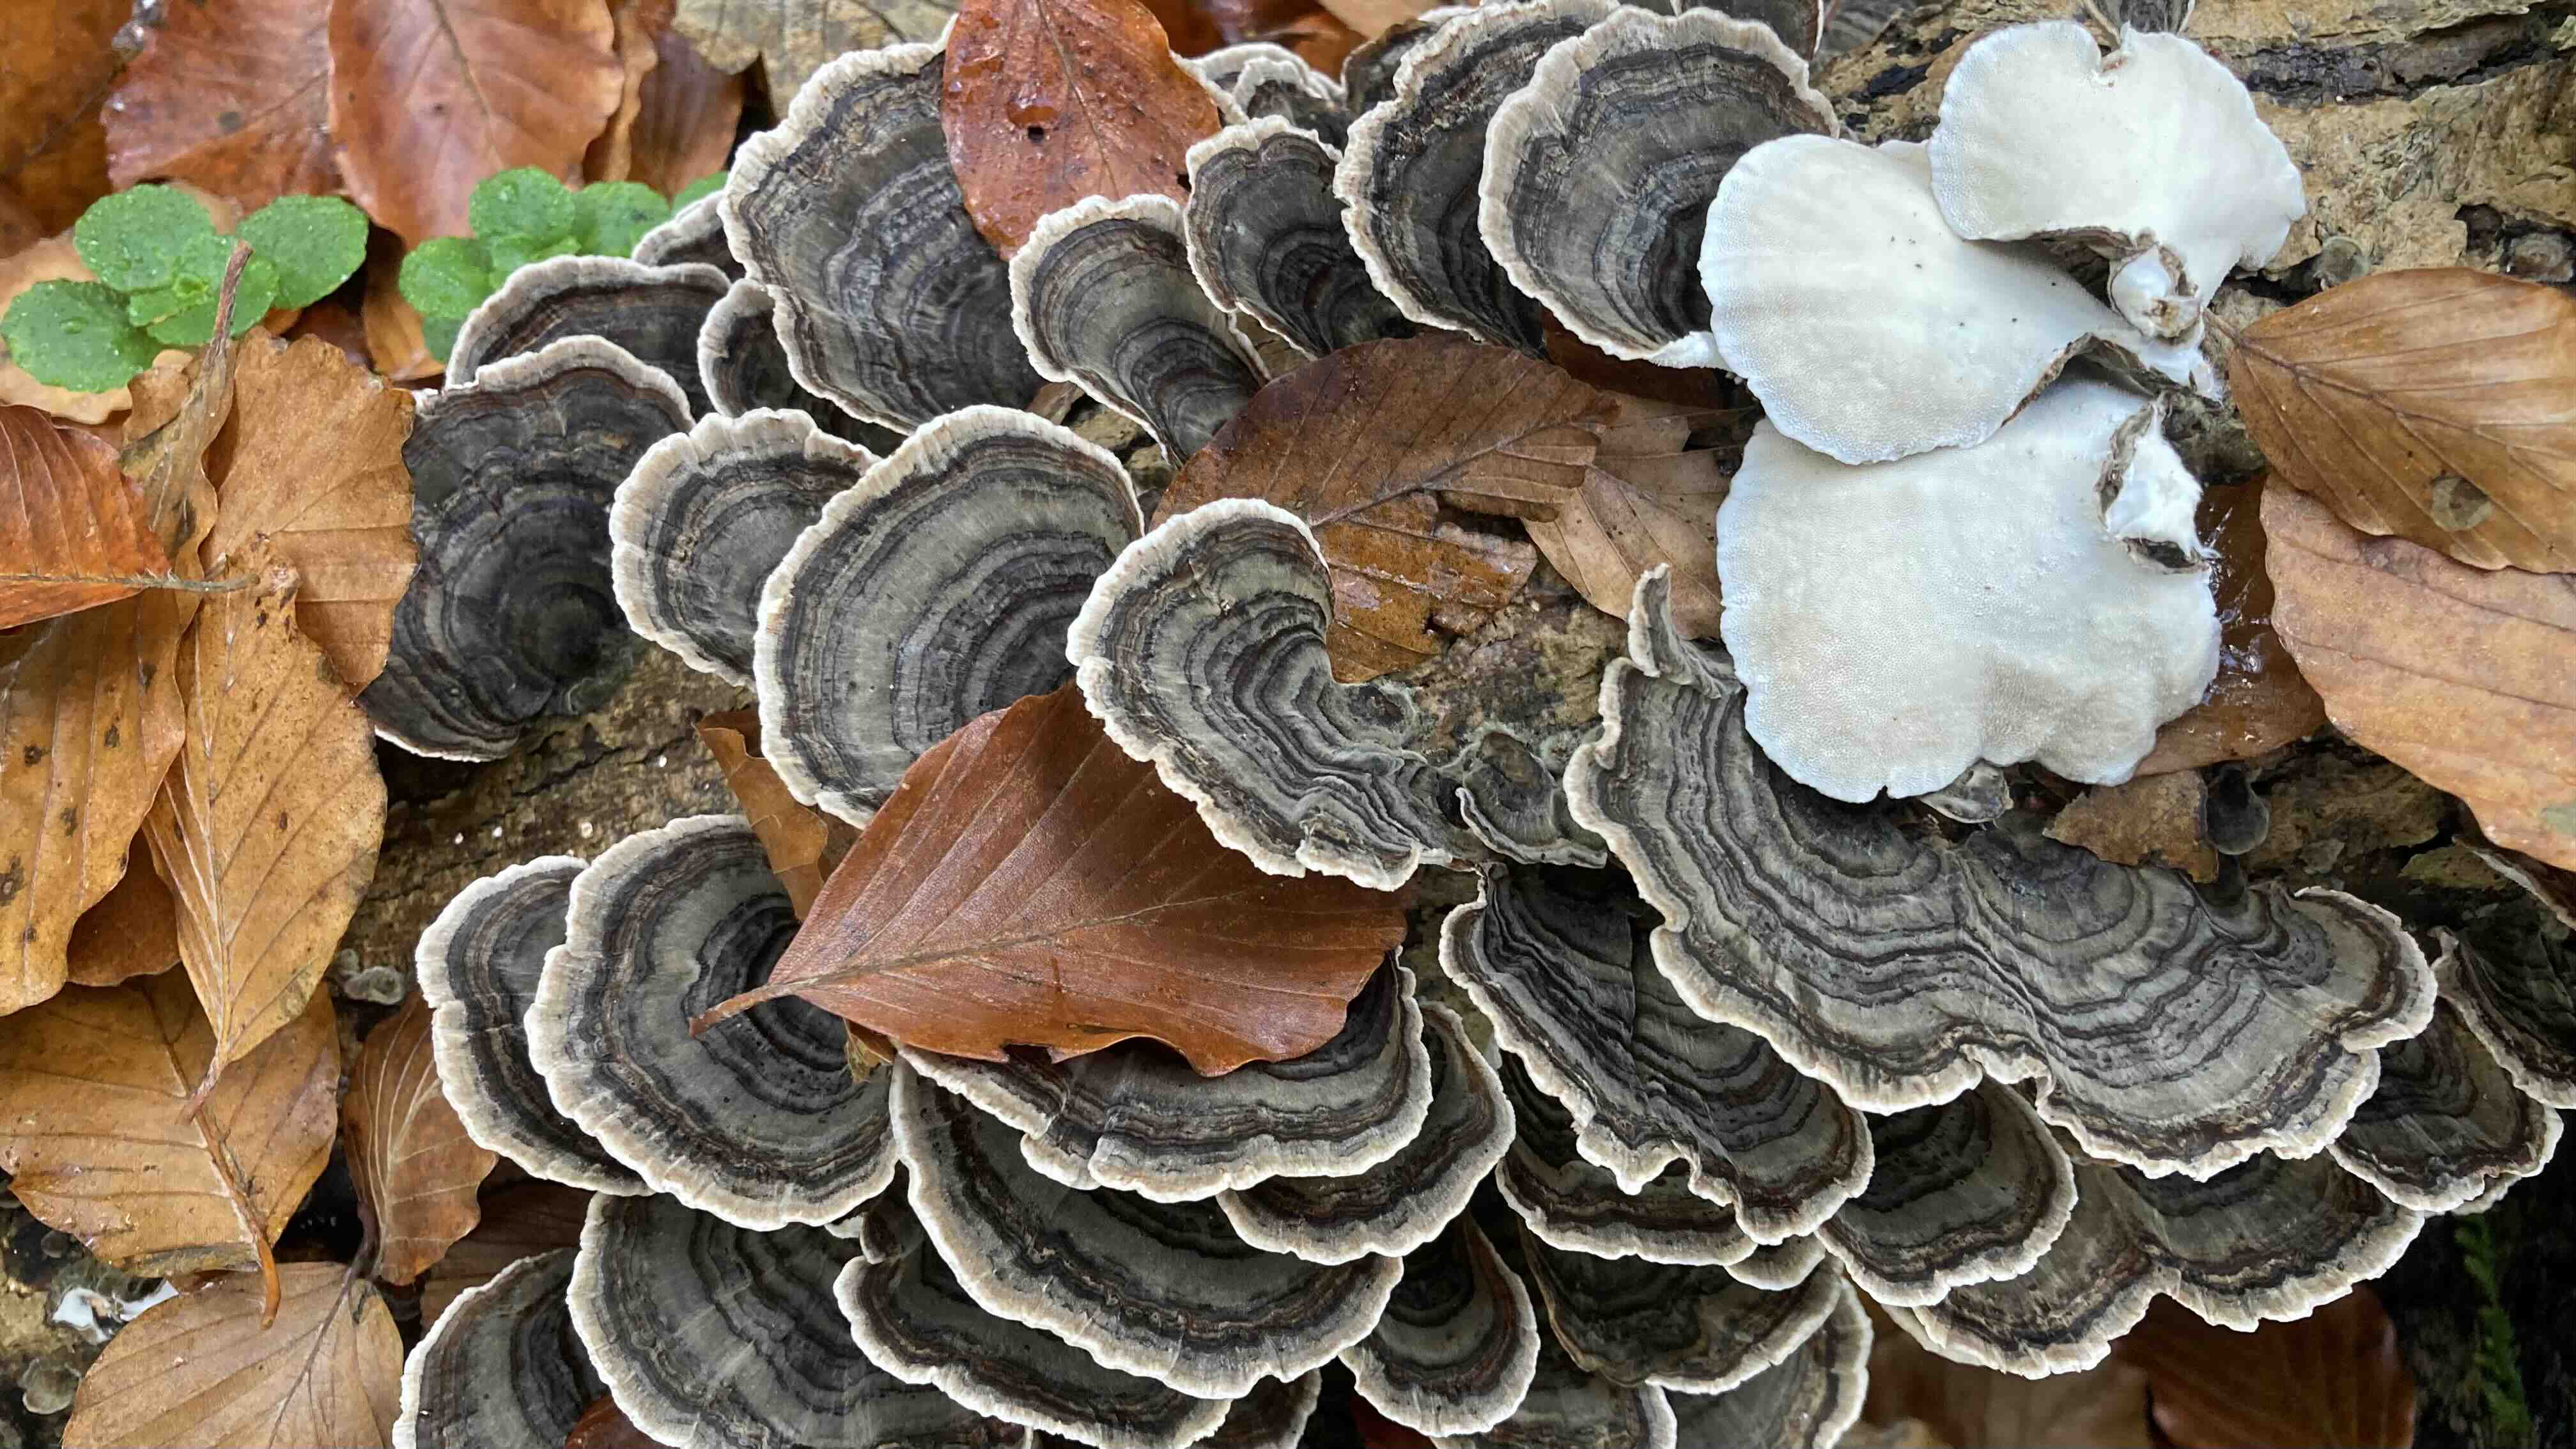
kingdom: Fungi
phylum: Basidiomycota
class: Agaricomycetes
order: Polyporales
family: Polyporaceae
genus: Trametes
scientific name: Trametes versicolor
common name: broget læderporesvamp
